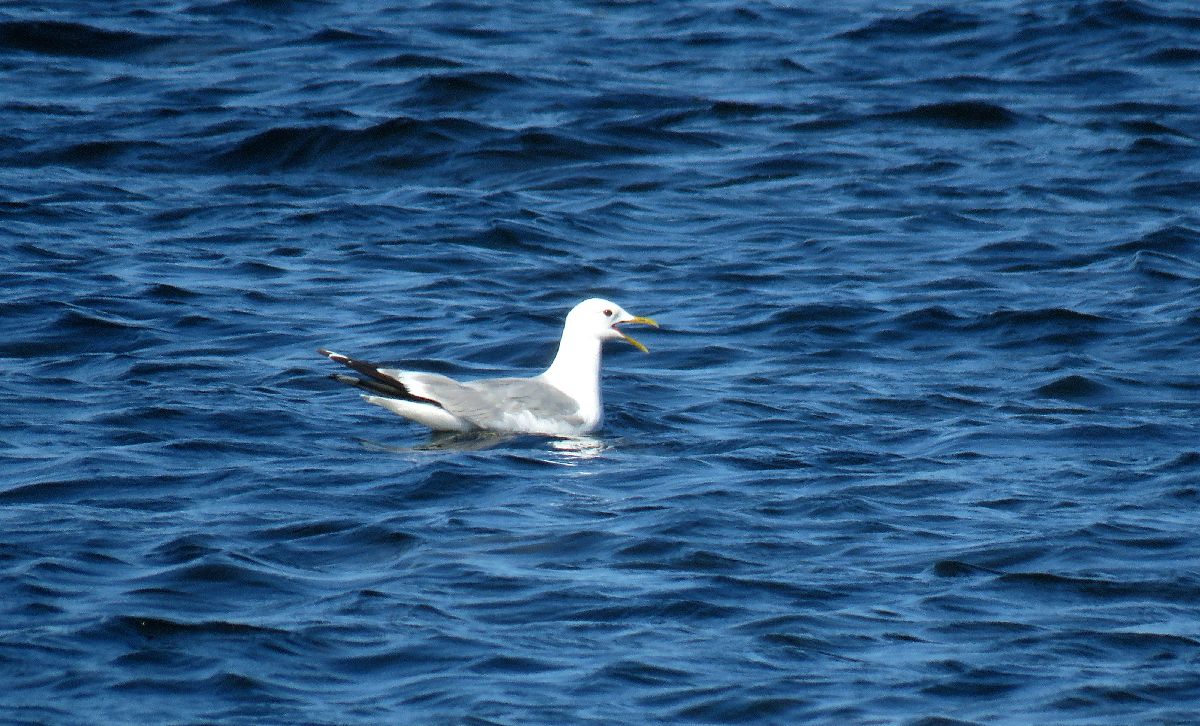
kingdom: Animalia
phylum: Chordata
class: Aves
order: Charadriiformes
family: Laridae
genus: Larus
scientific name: Larus canus
